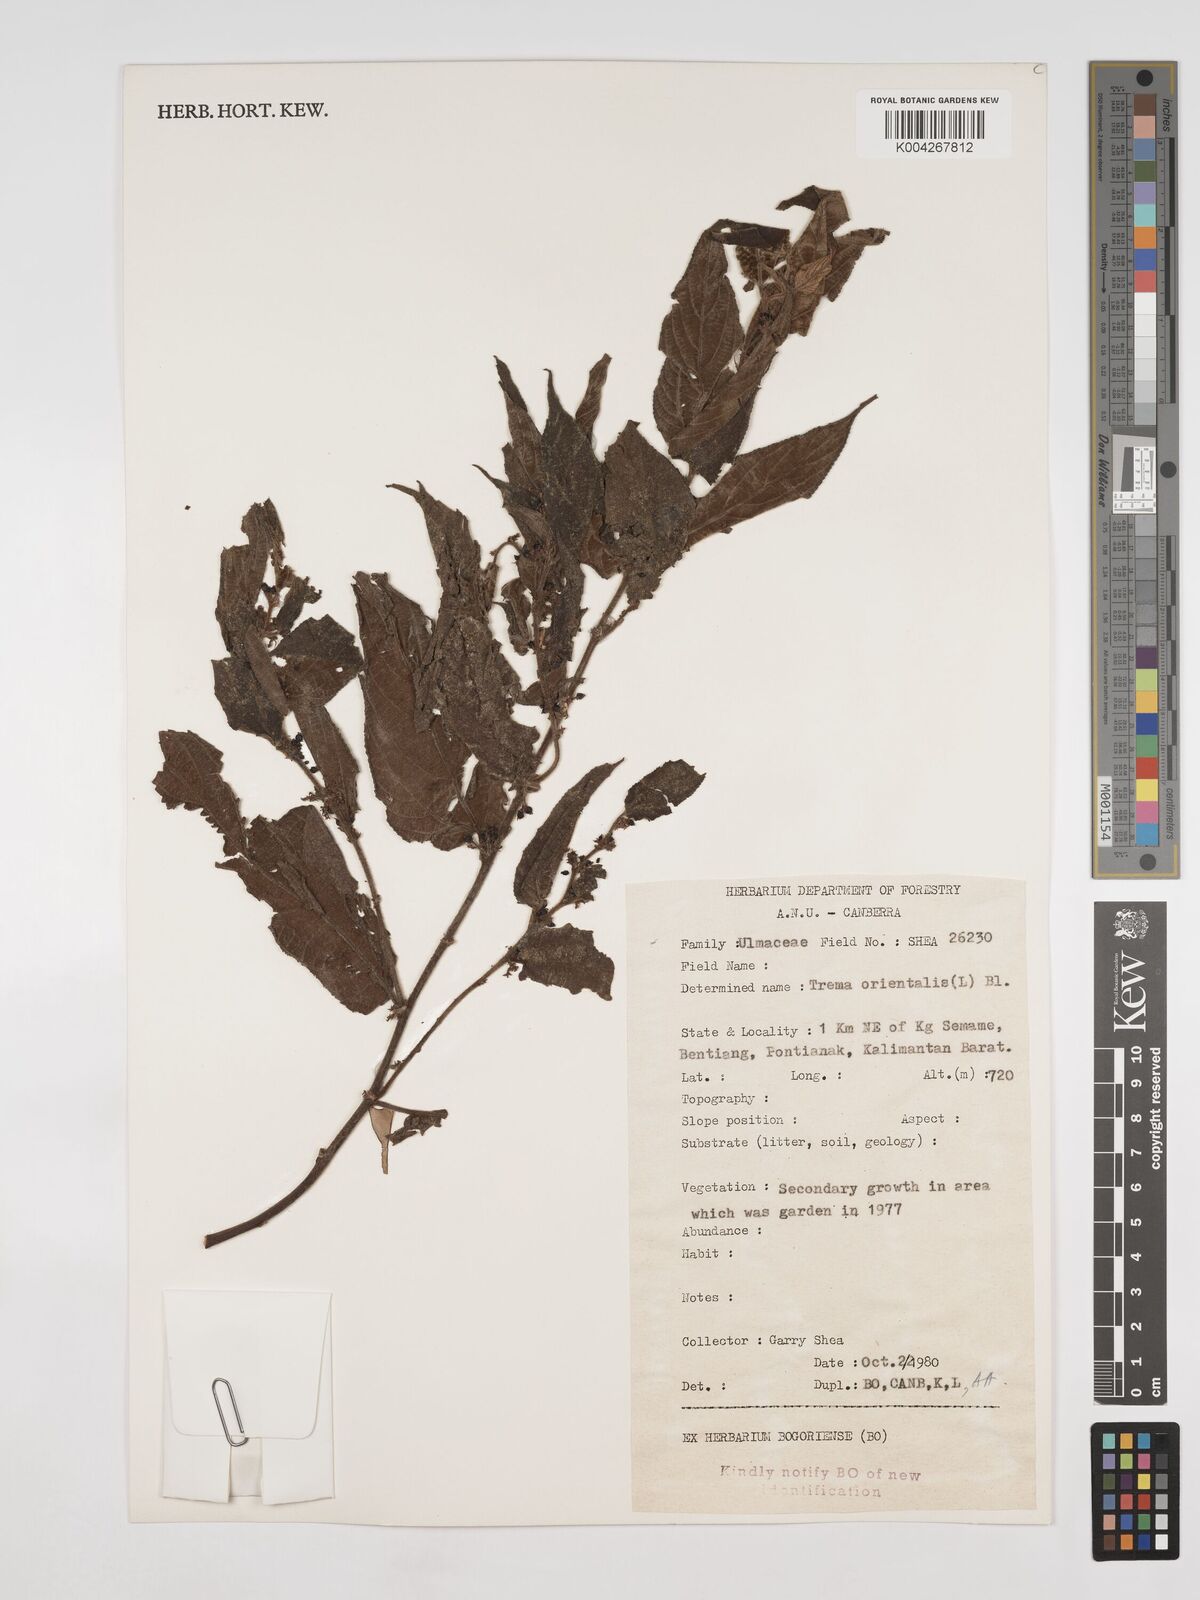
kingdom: Plantae
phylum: Tracheophyta
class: Magnoliopsida
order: Rosales
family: Cannabaceae
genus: Trema
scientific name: Trema orientale
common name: Indian charcoal tree
